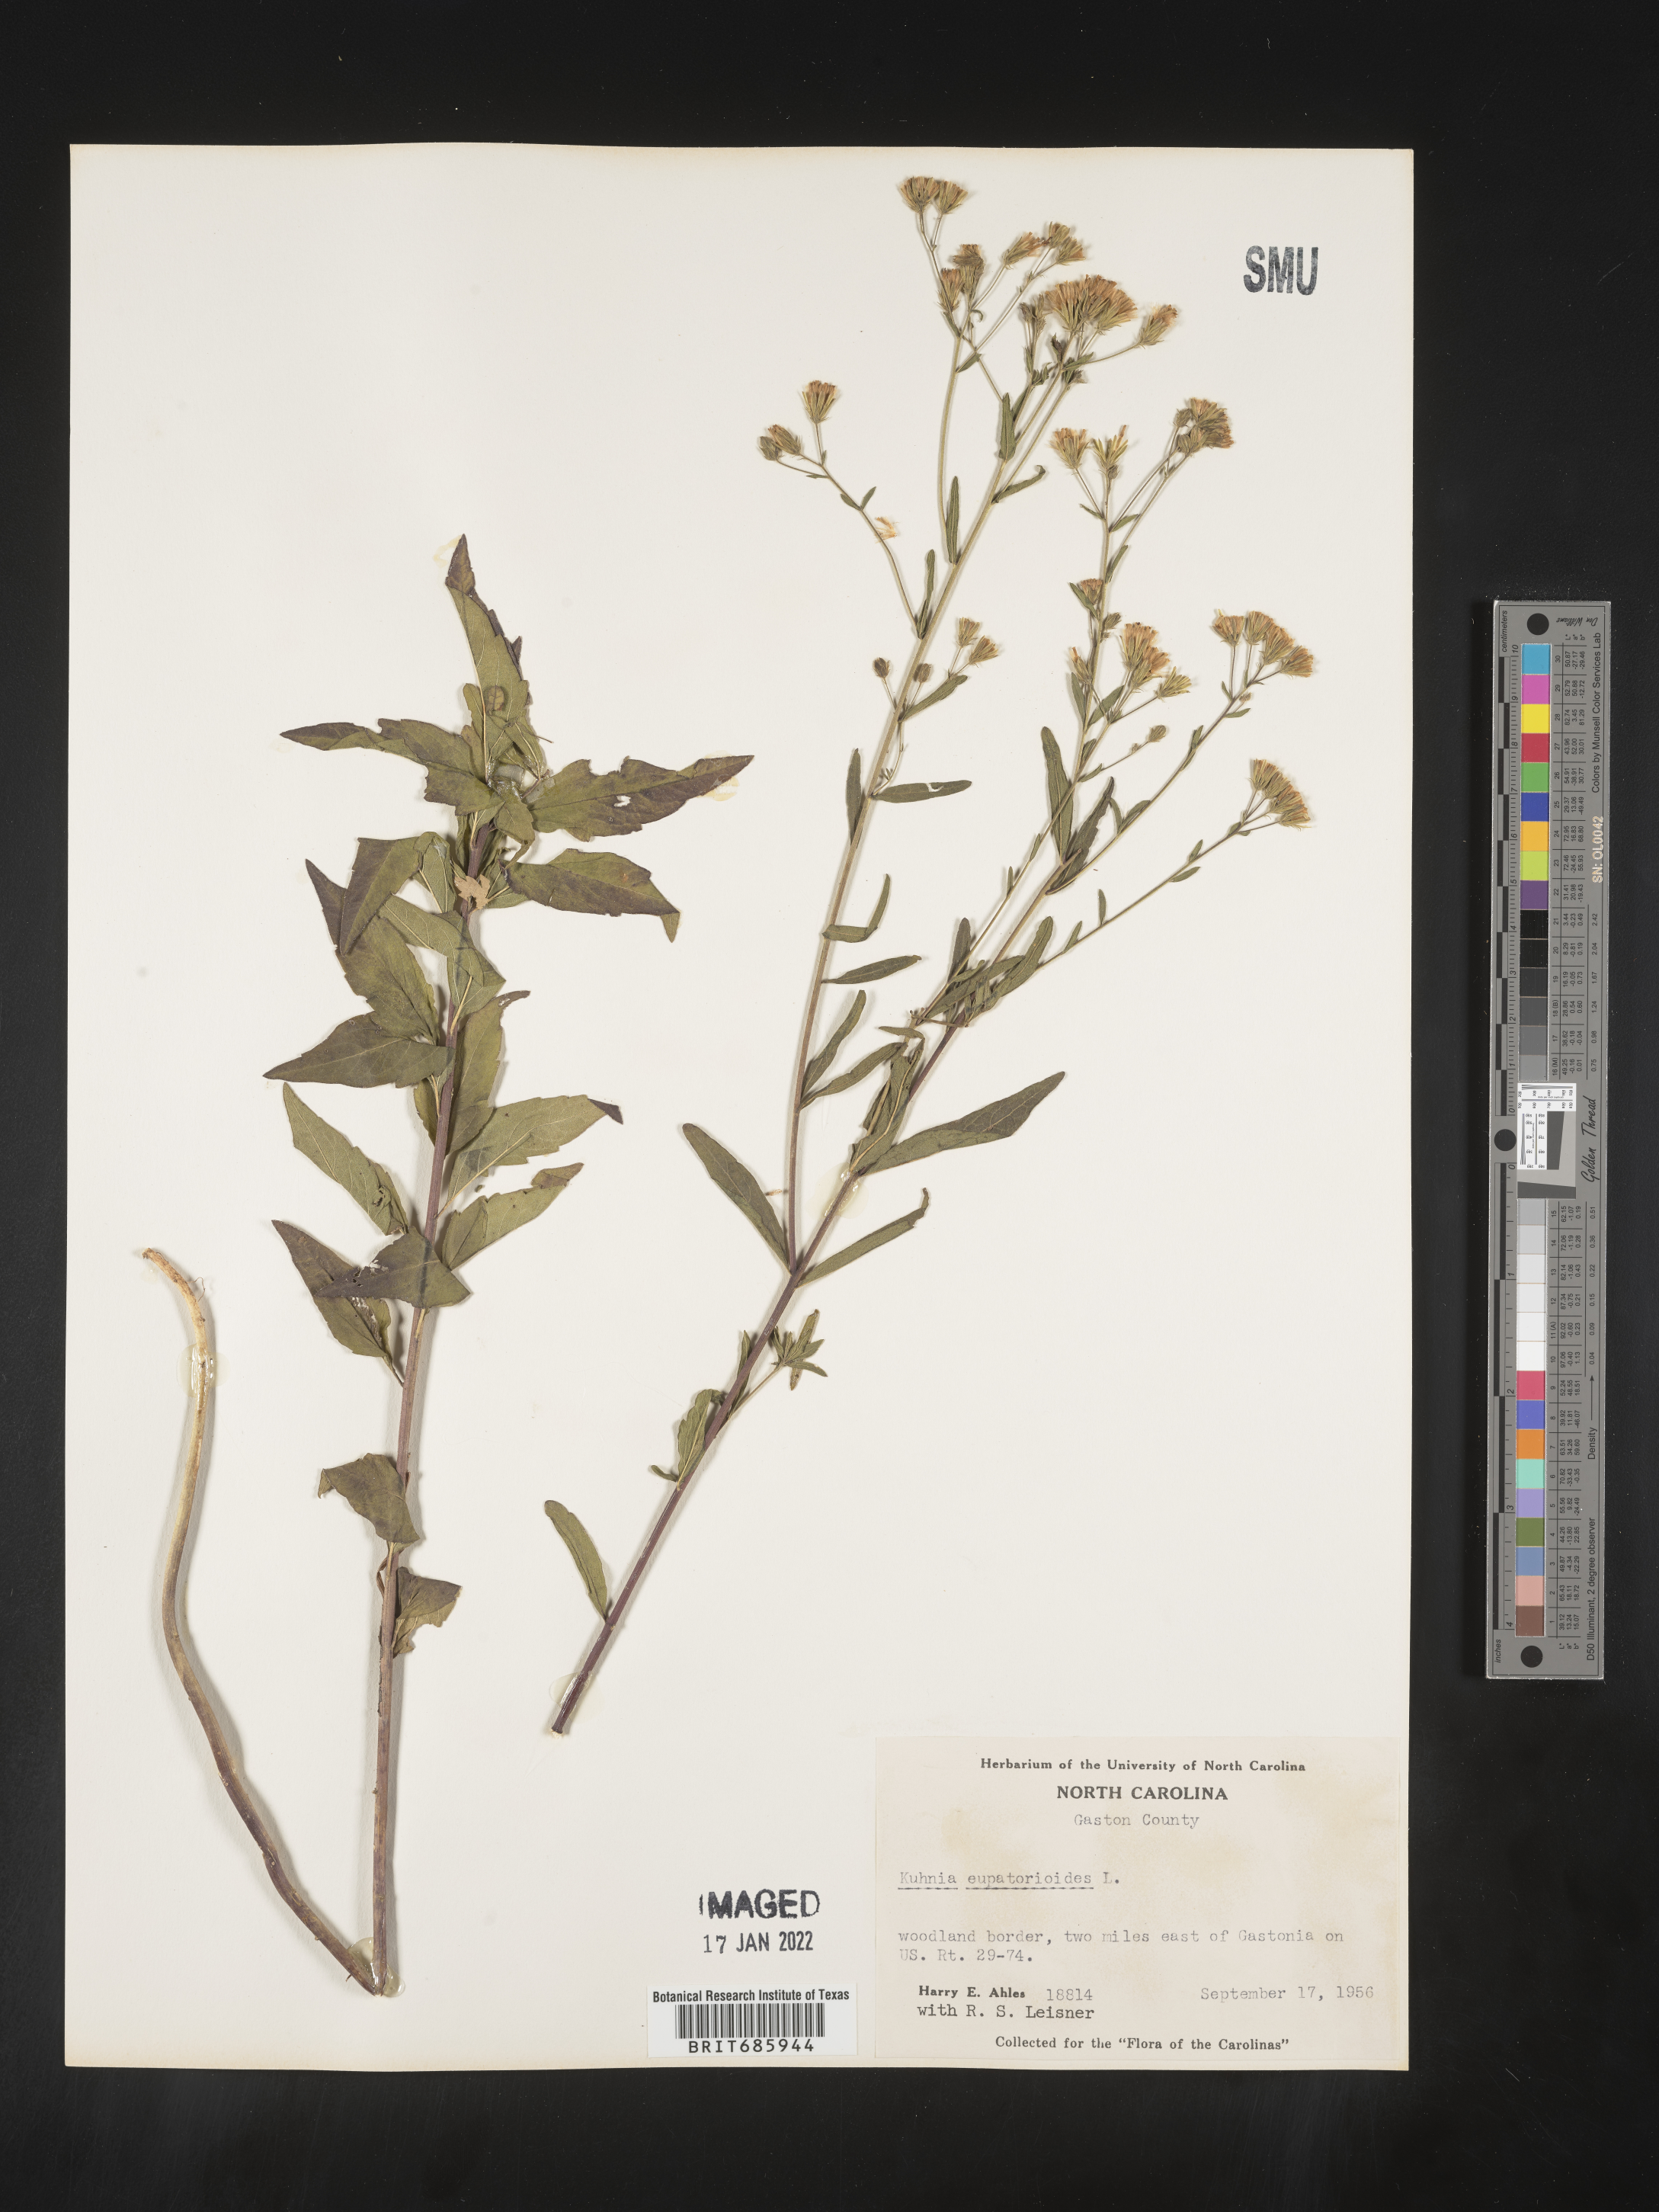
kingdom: Plantae
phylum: Tracheophyta
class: Magnoliopsida
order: Asterales
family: Asteraceae
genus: Brickellia
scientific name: Brickellia eupatorioides
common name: False boneset
